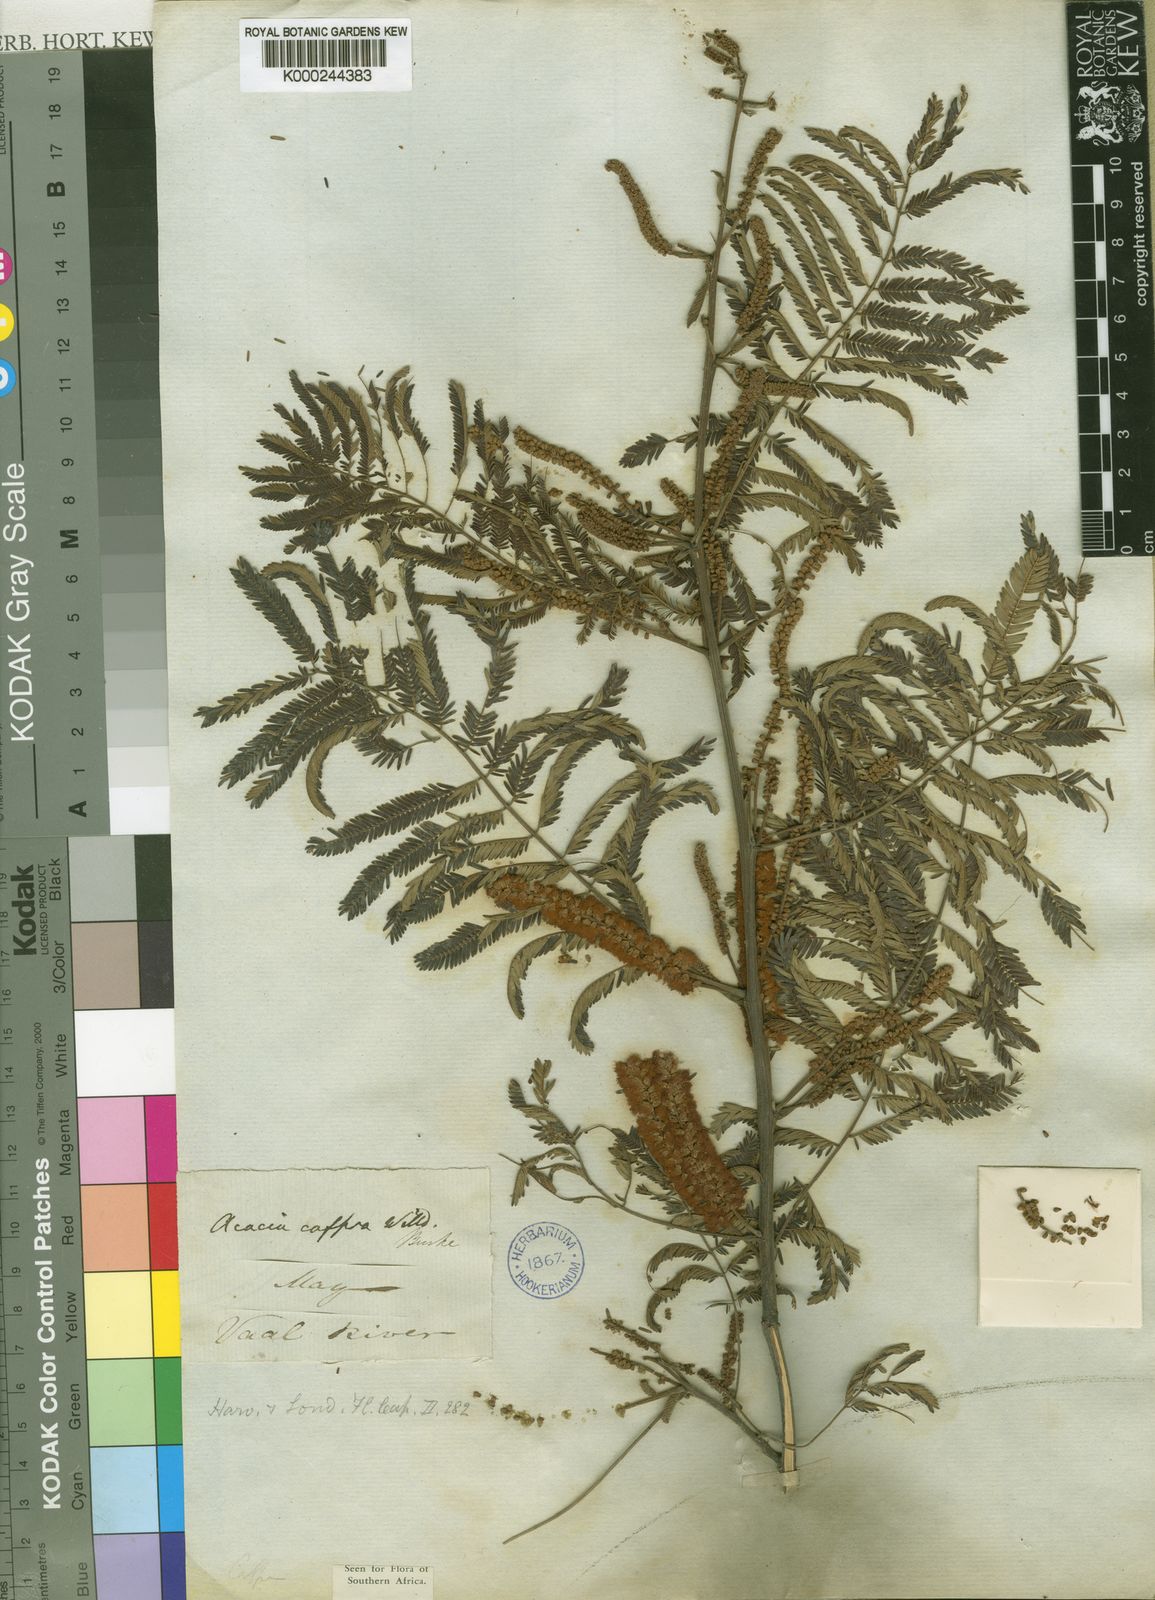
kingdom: Plantae
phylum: Tracheophyta
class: Magnoliopsida
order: Fabales
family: Fabaceae
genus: Senegalia
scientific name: Senegalia caffra
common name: Cat thorn
